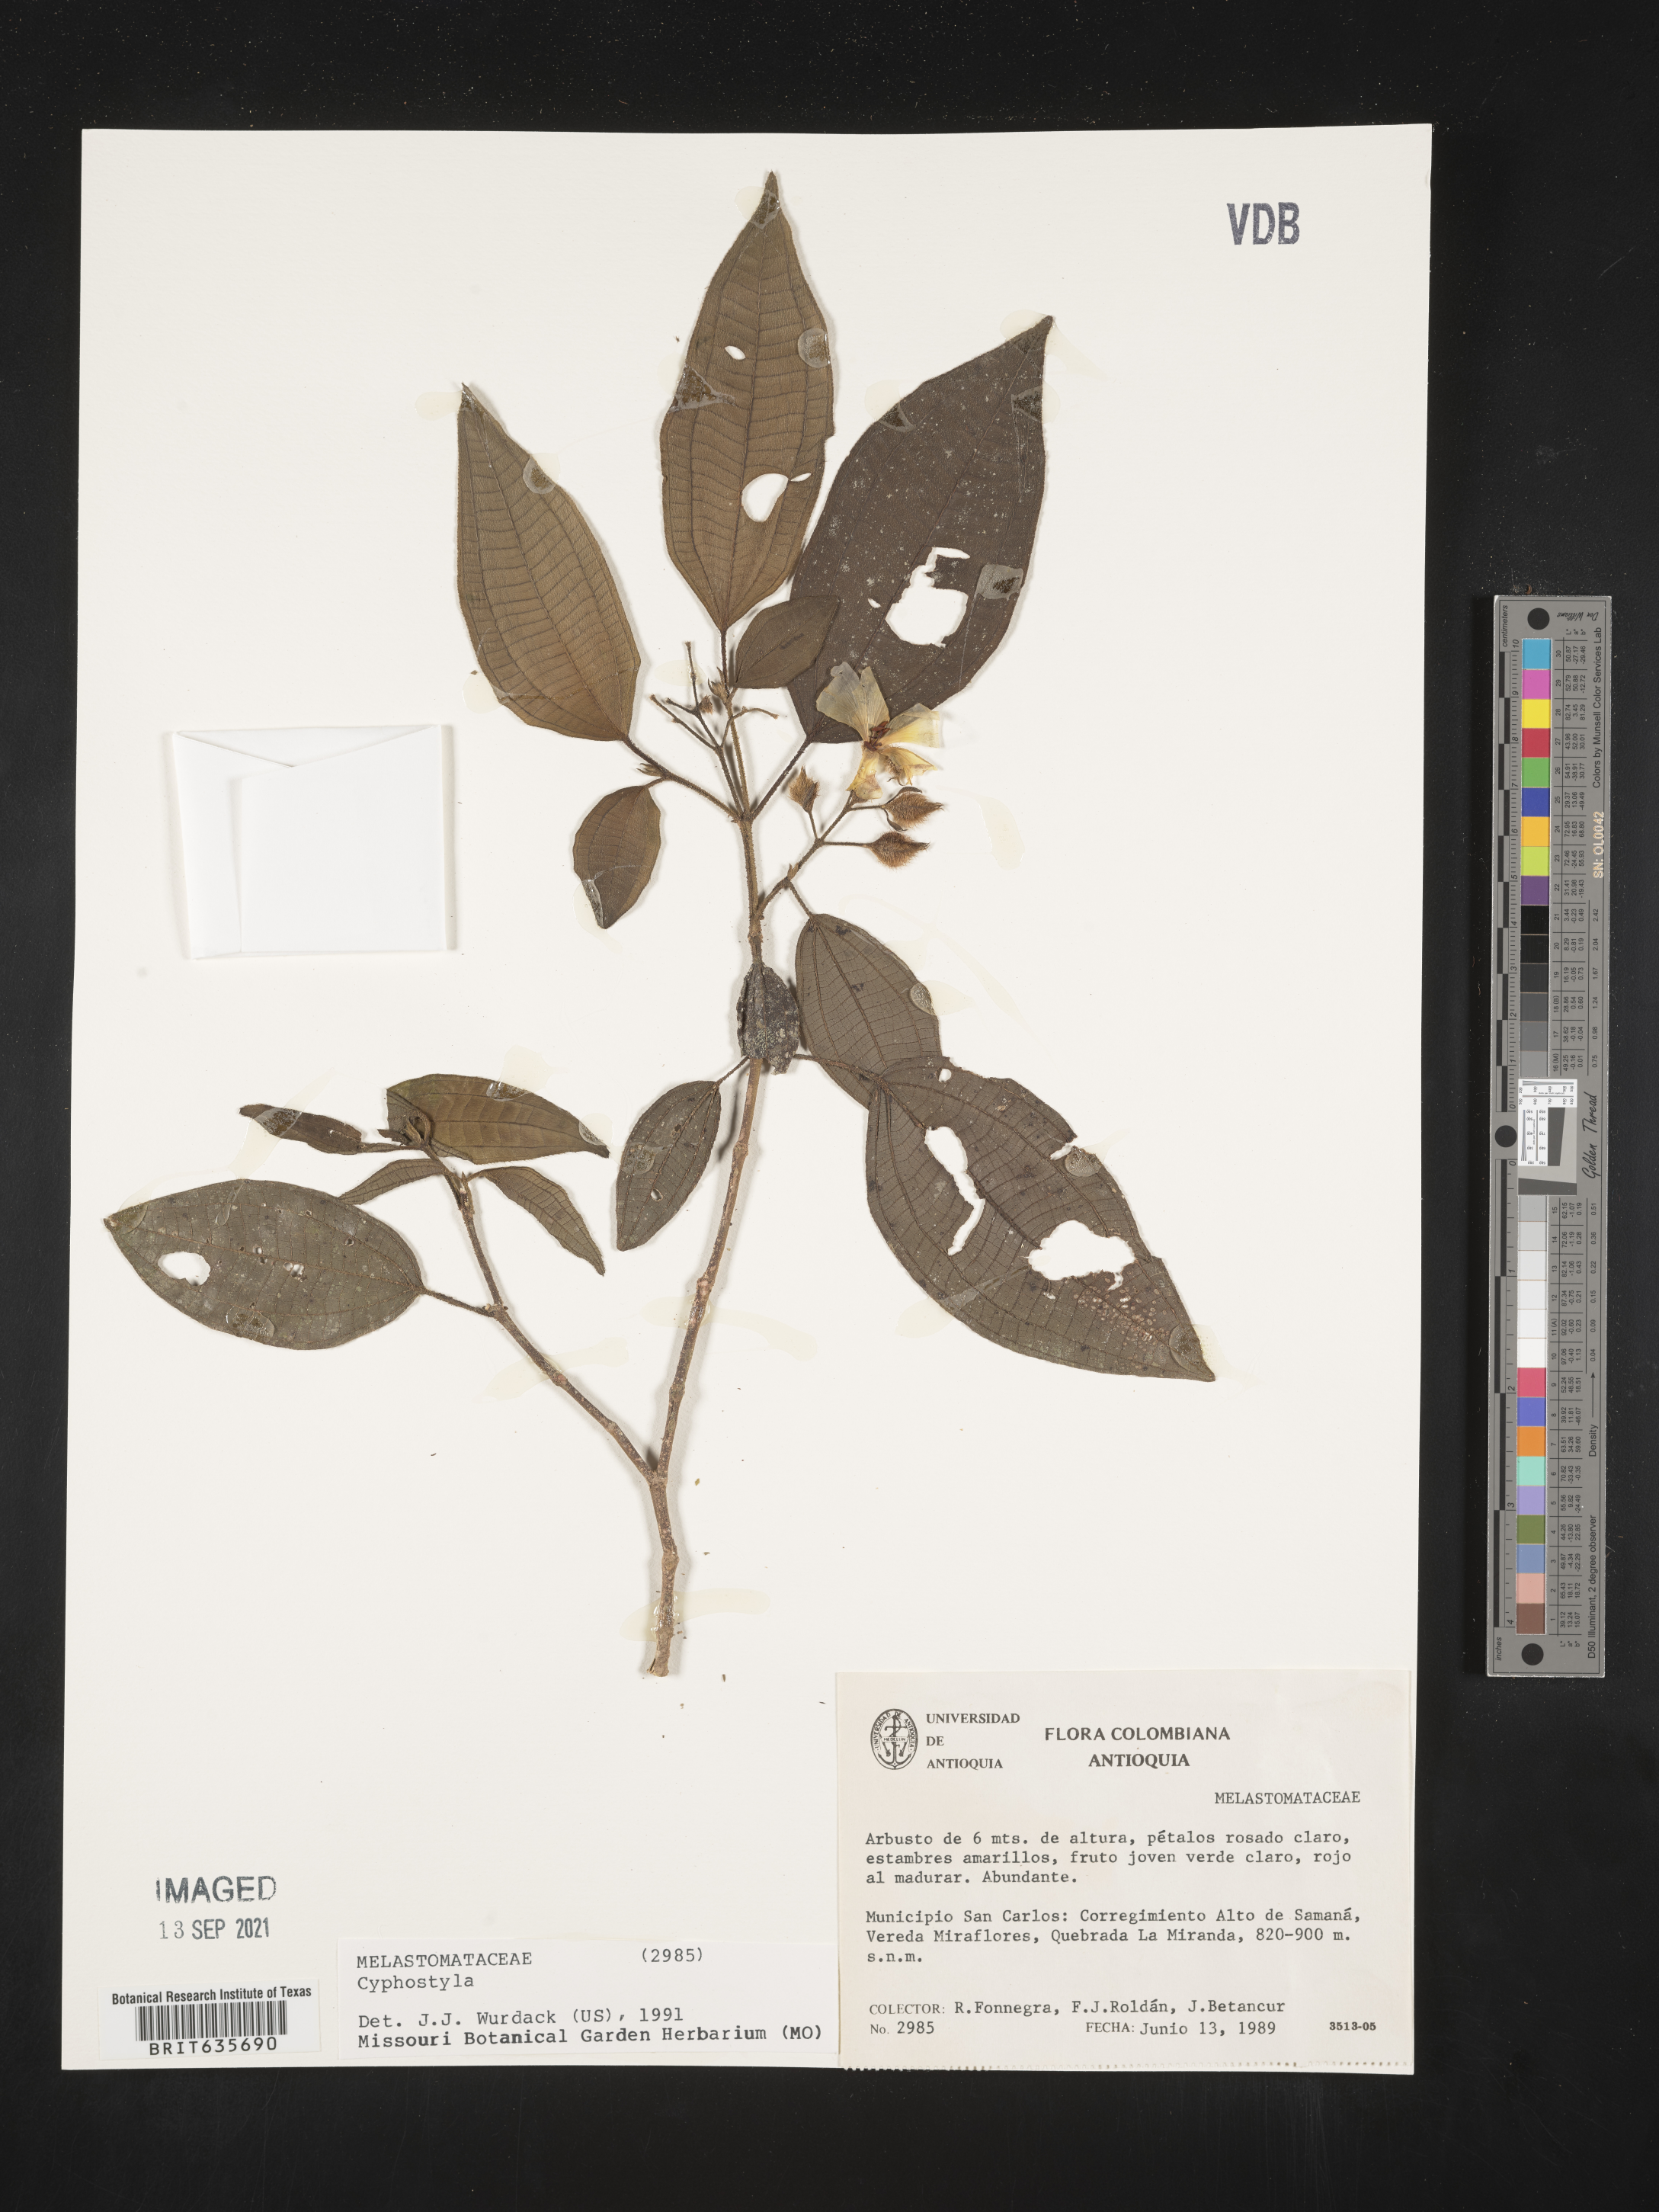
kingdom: Plantae
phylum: Tracheophyta
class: Magnoliopsida
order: Myrtales
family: Melastomataceae
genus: Allomaieta
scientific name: Allomaieta
